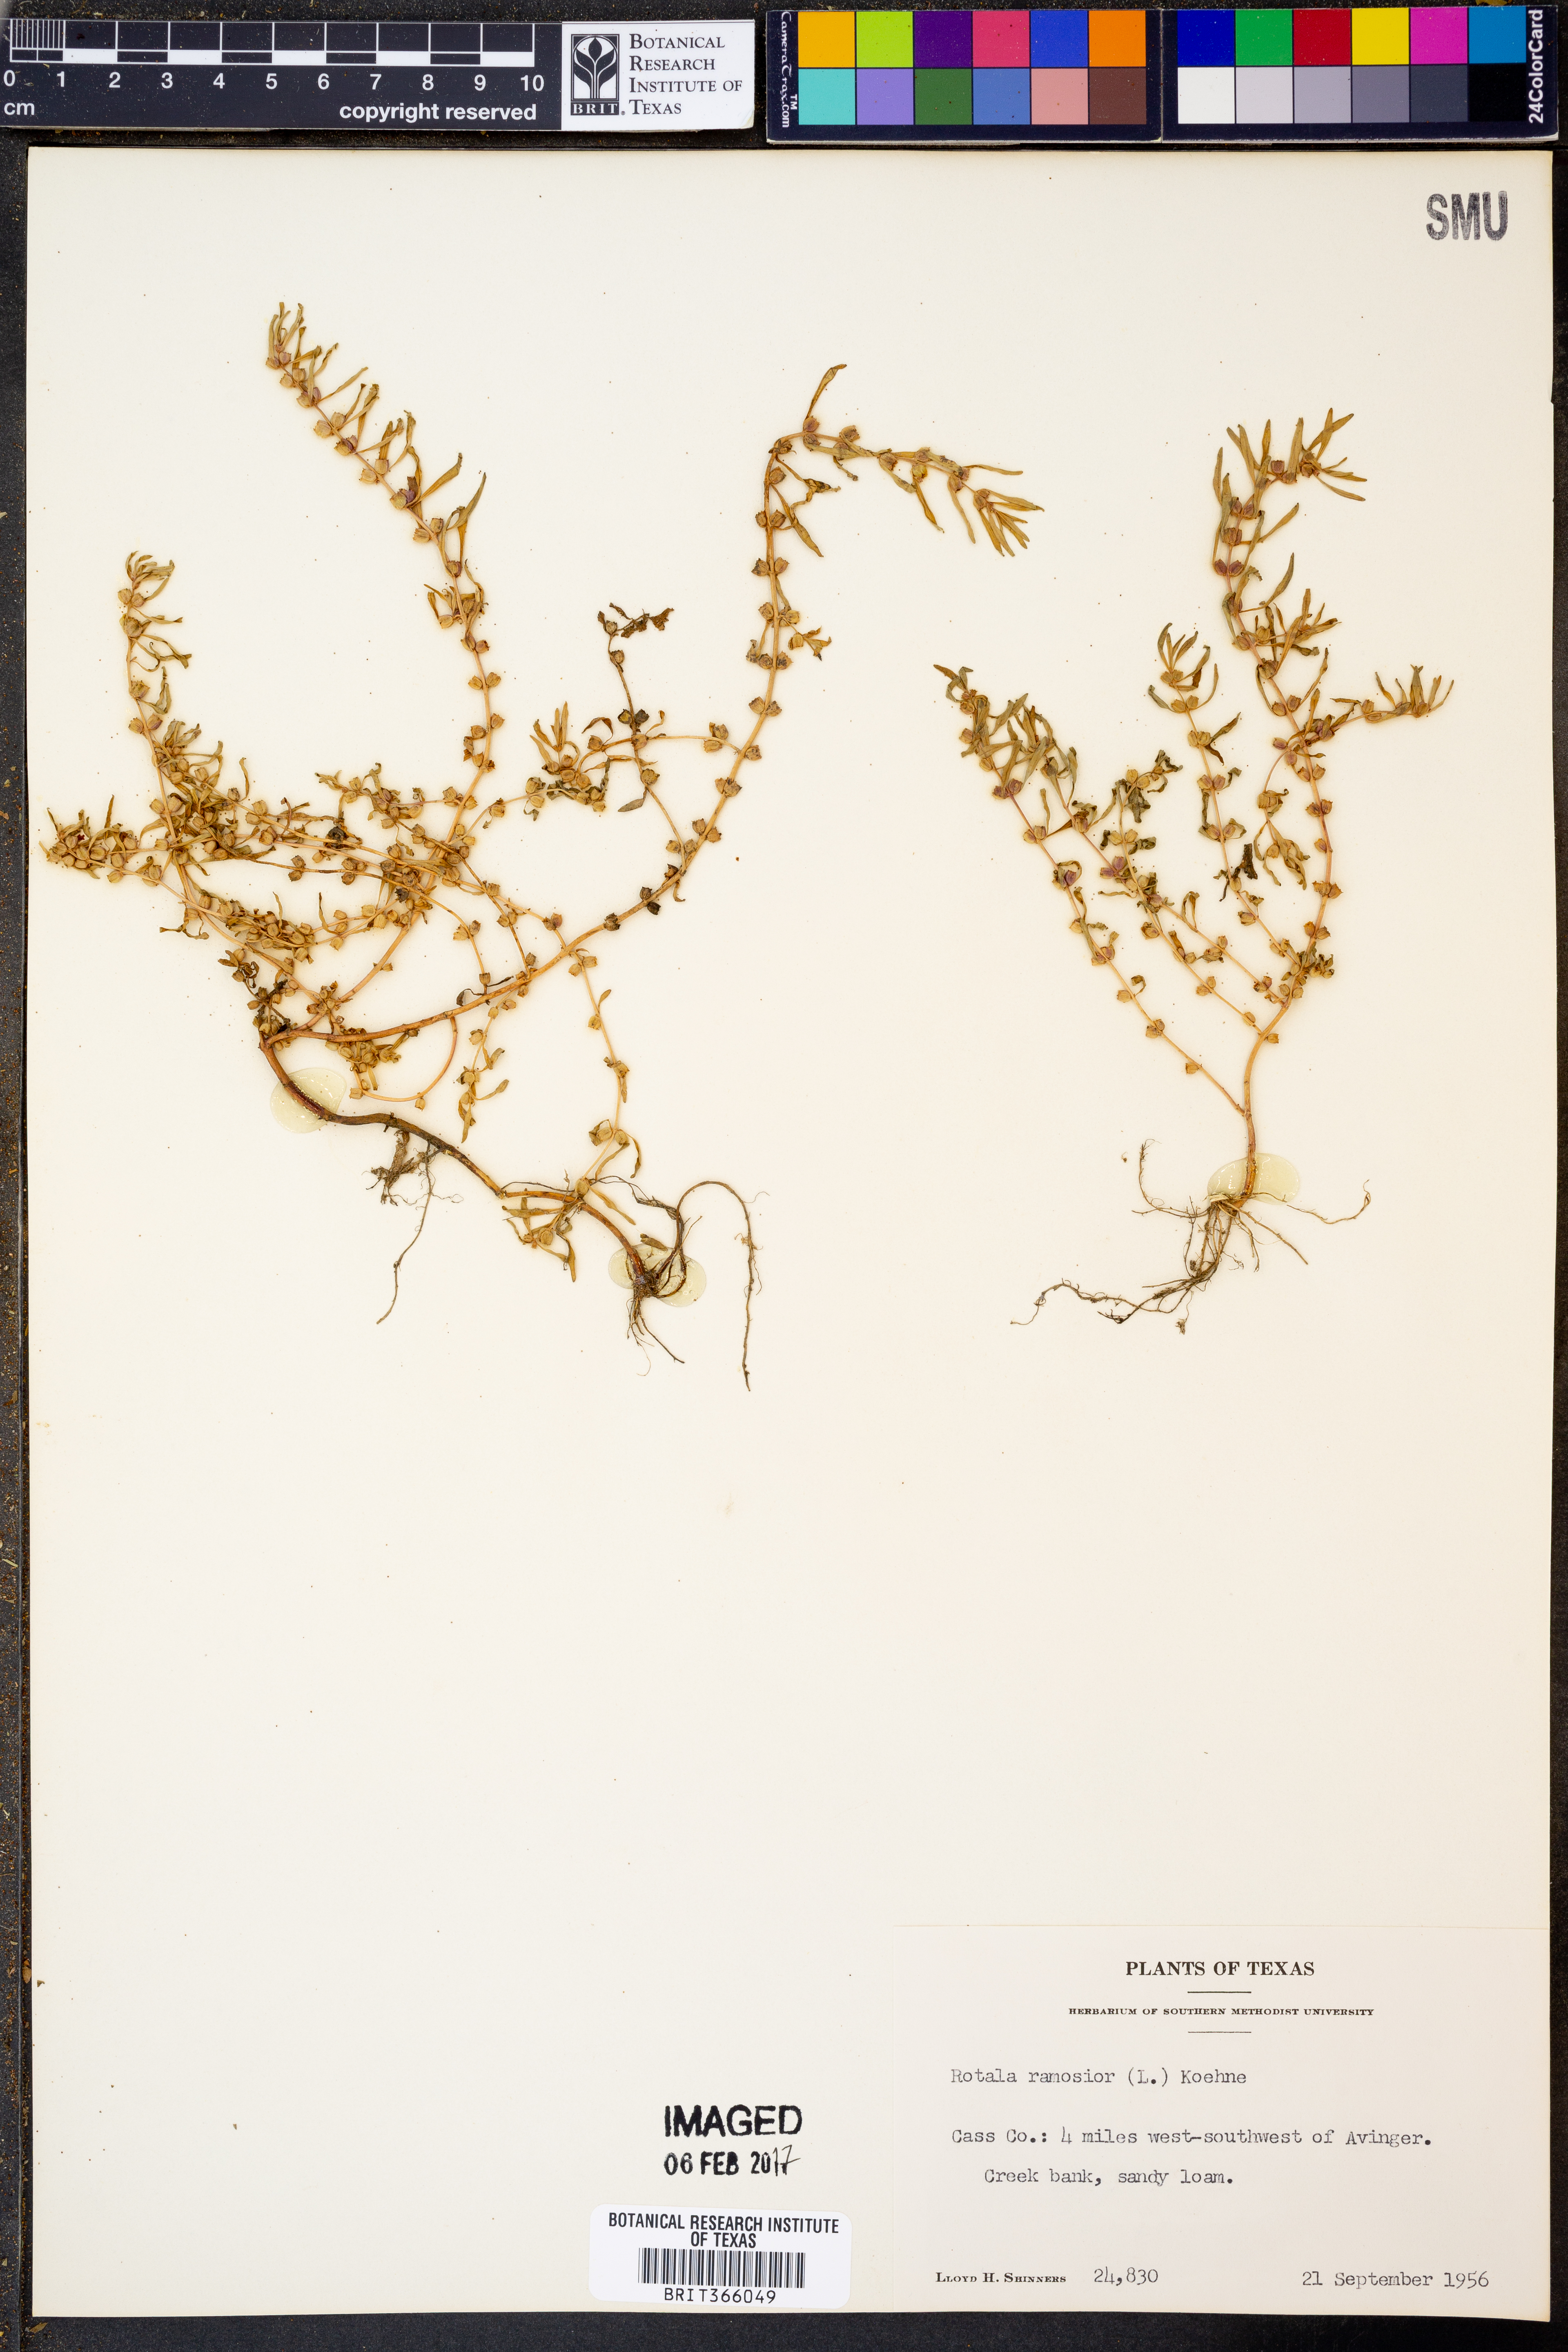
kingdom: Plantae
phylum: Tracheophyta
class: Magnoliopsida
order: Myrtales
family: Lythraceae
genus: Rotala
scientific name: Rotala ramosior
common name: Lowland rotala
